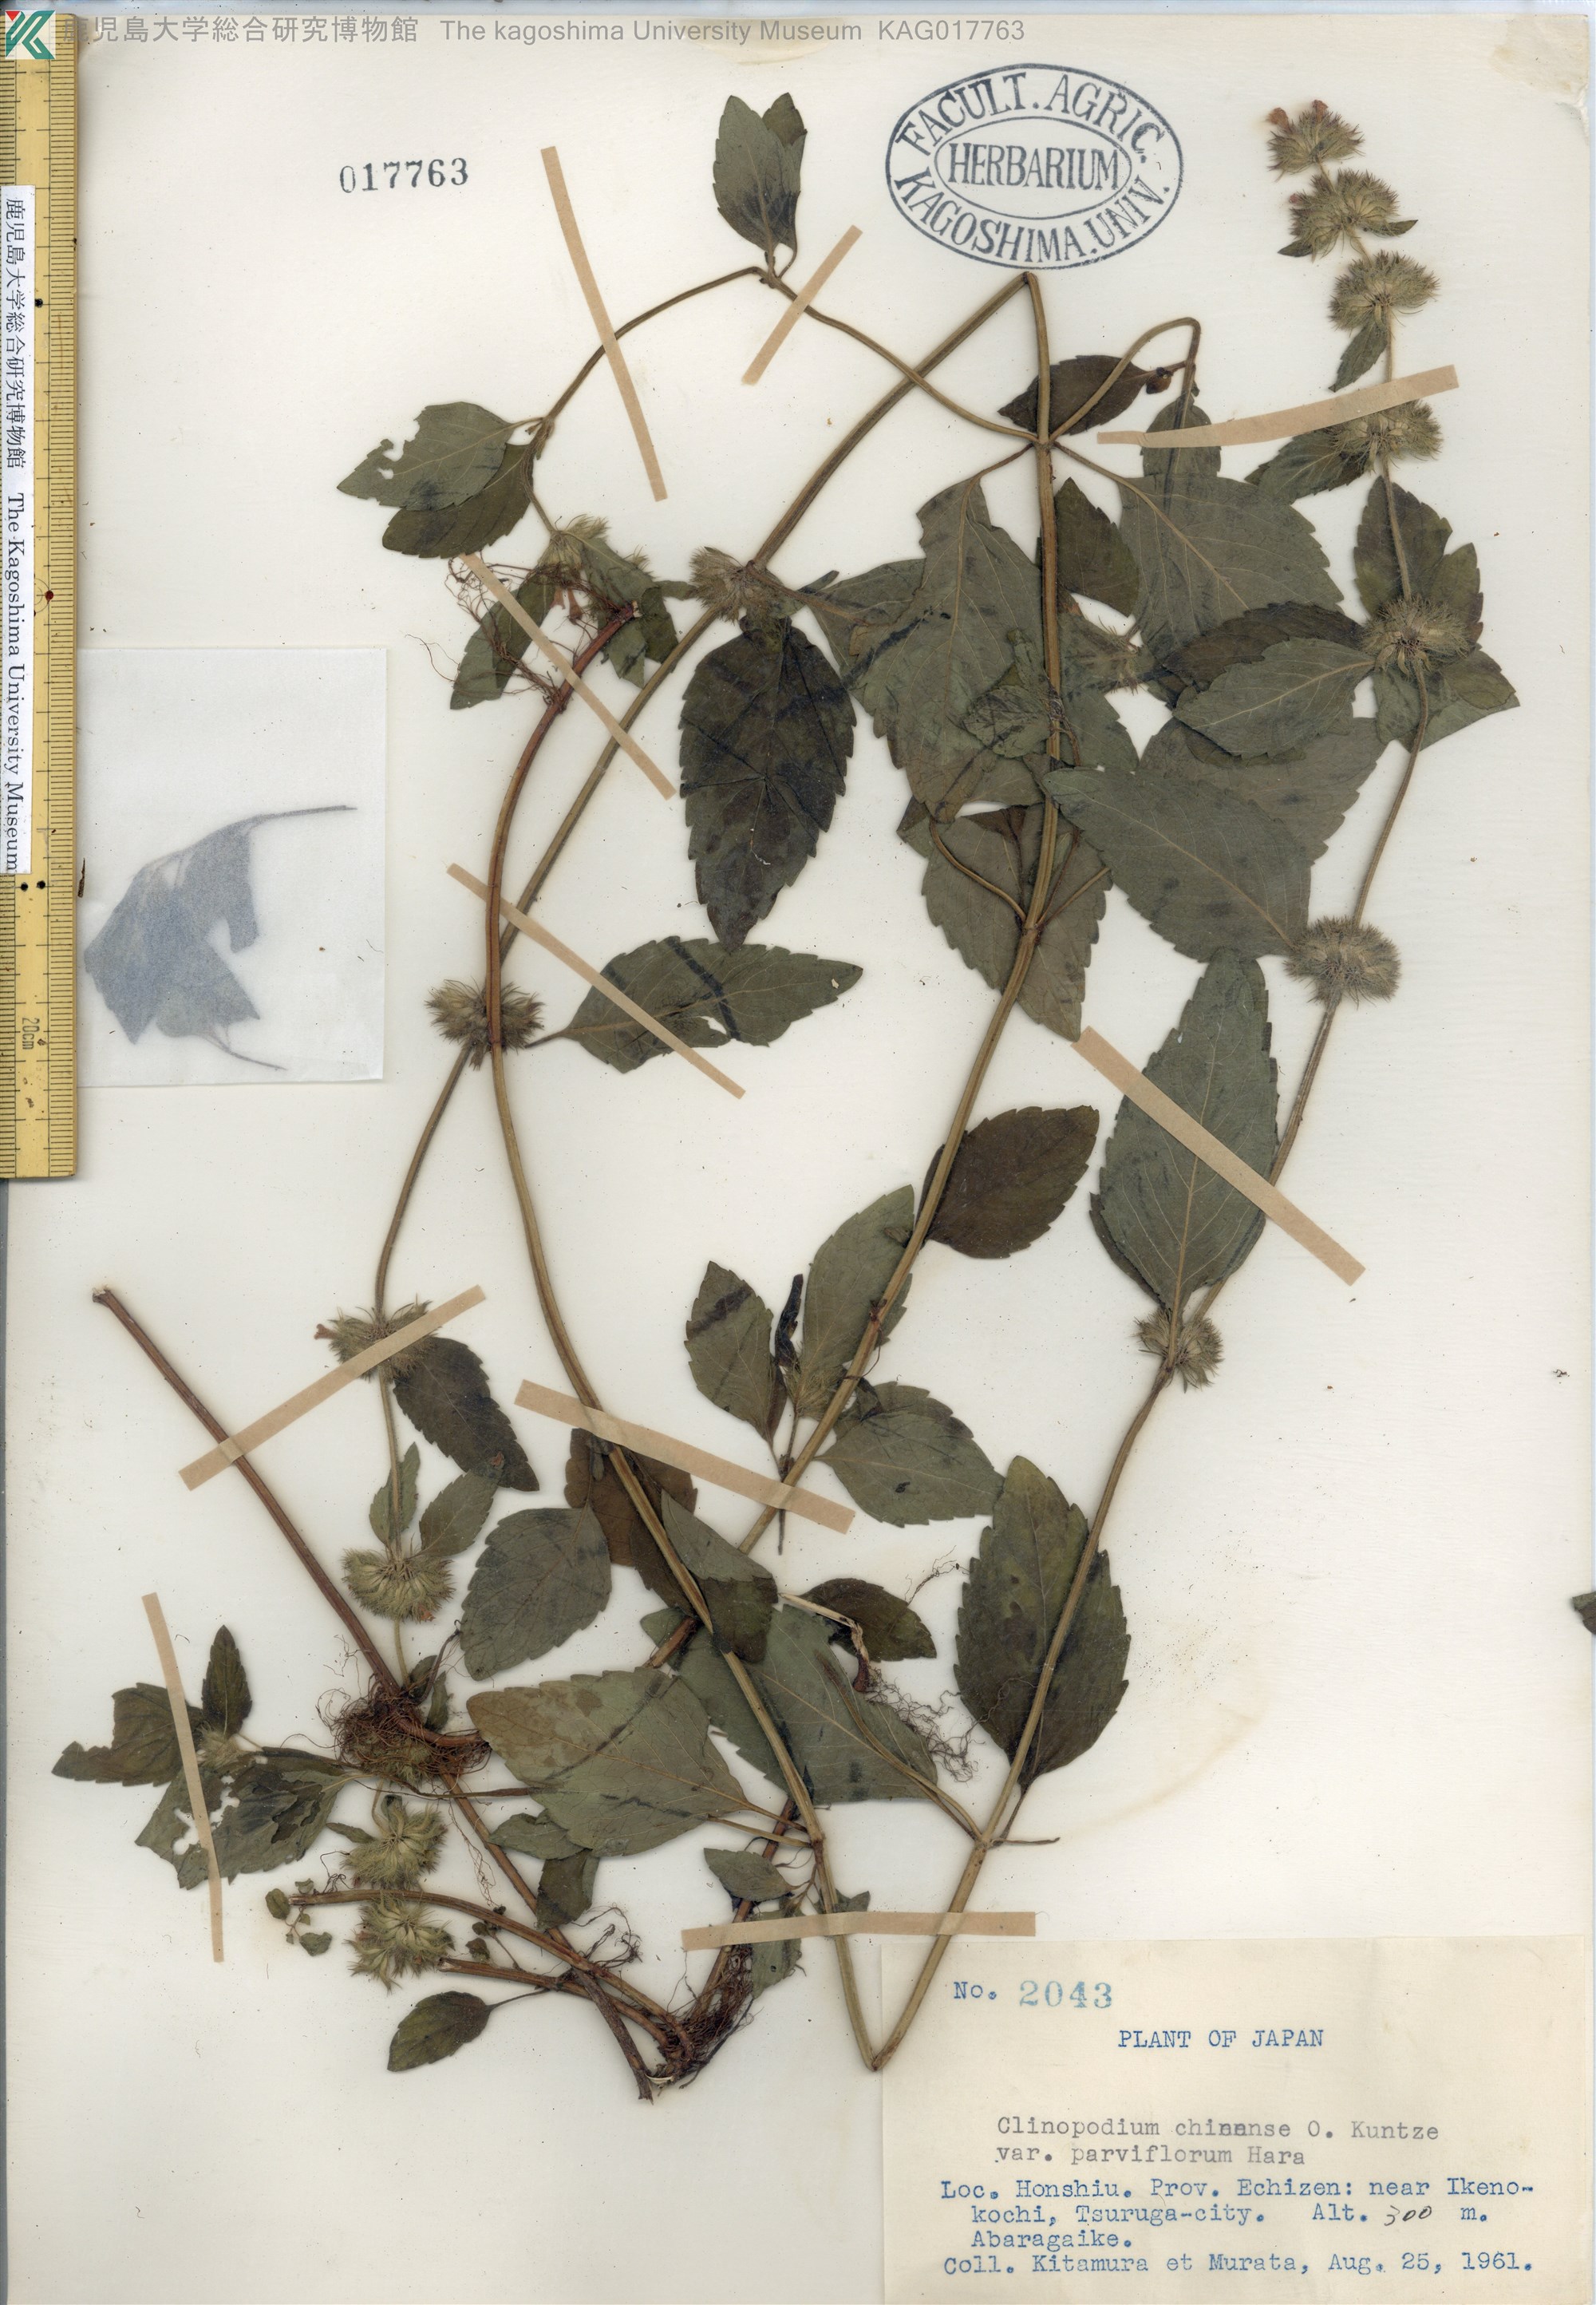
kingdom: Plantae
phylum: Tracheophyta
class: Magnoliopsida
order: Lamiales
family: Lamiaceae
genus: Clinopodium
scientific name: Clinopodium chinense
